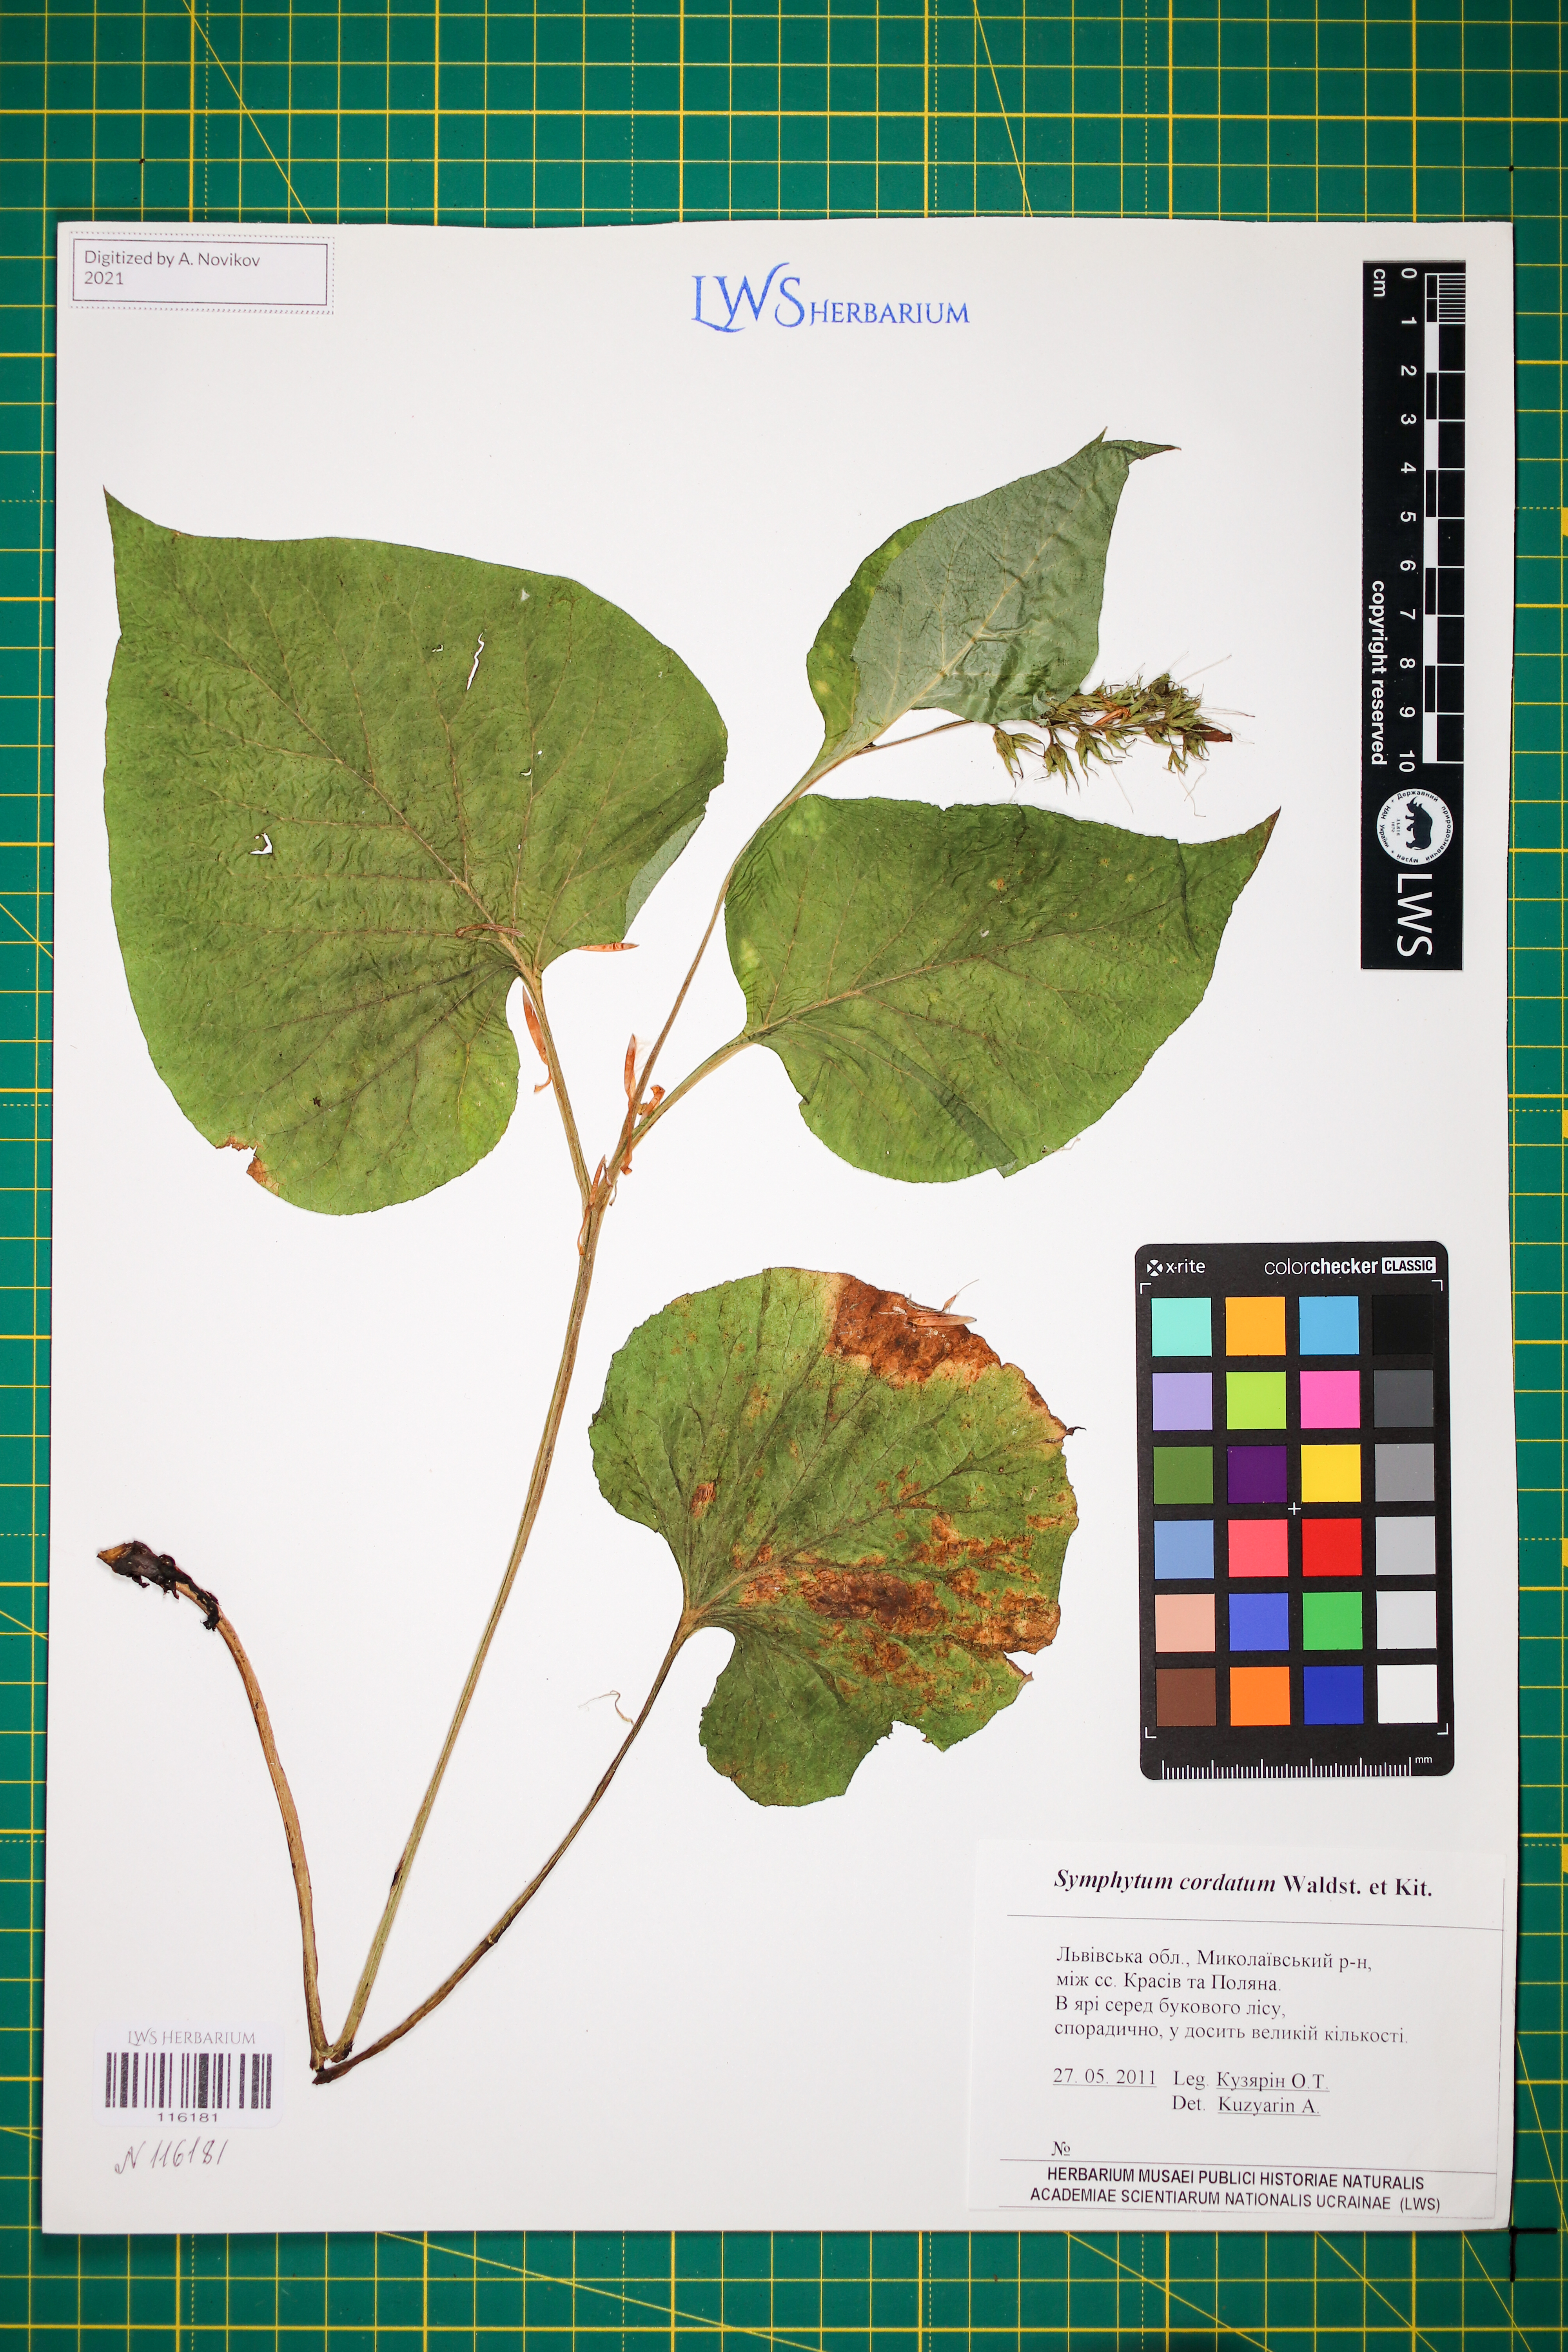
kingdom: Plantae
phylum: Tracheophyta
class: Magnoliopsida
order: Boraginales
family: Boraginaceae
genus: Symphytum
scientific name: Symphytum cordatum
